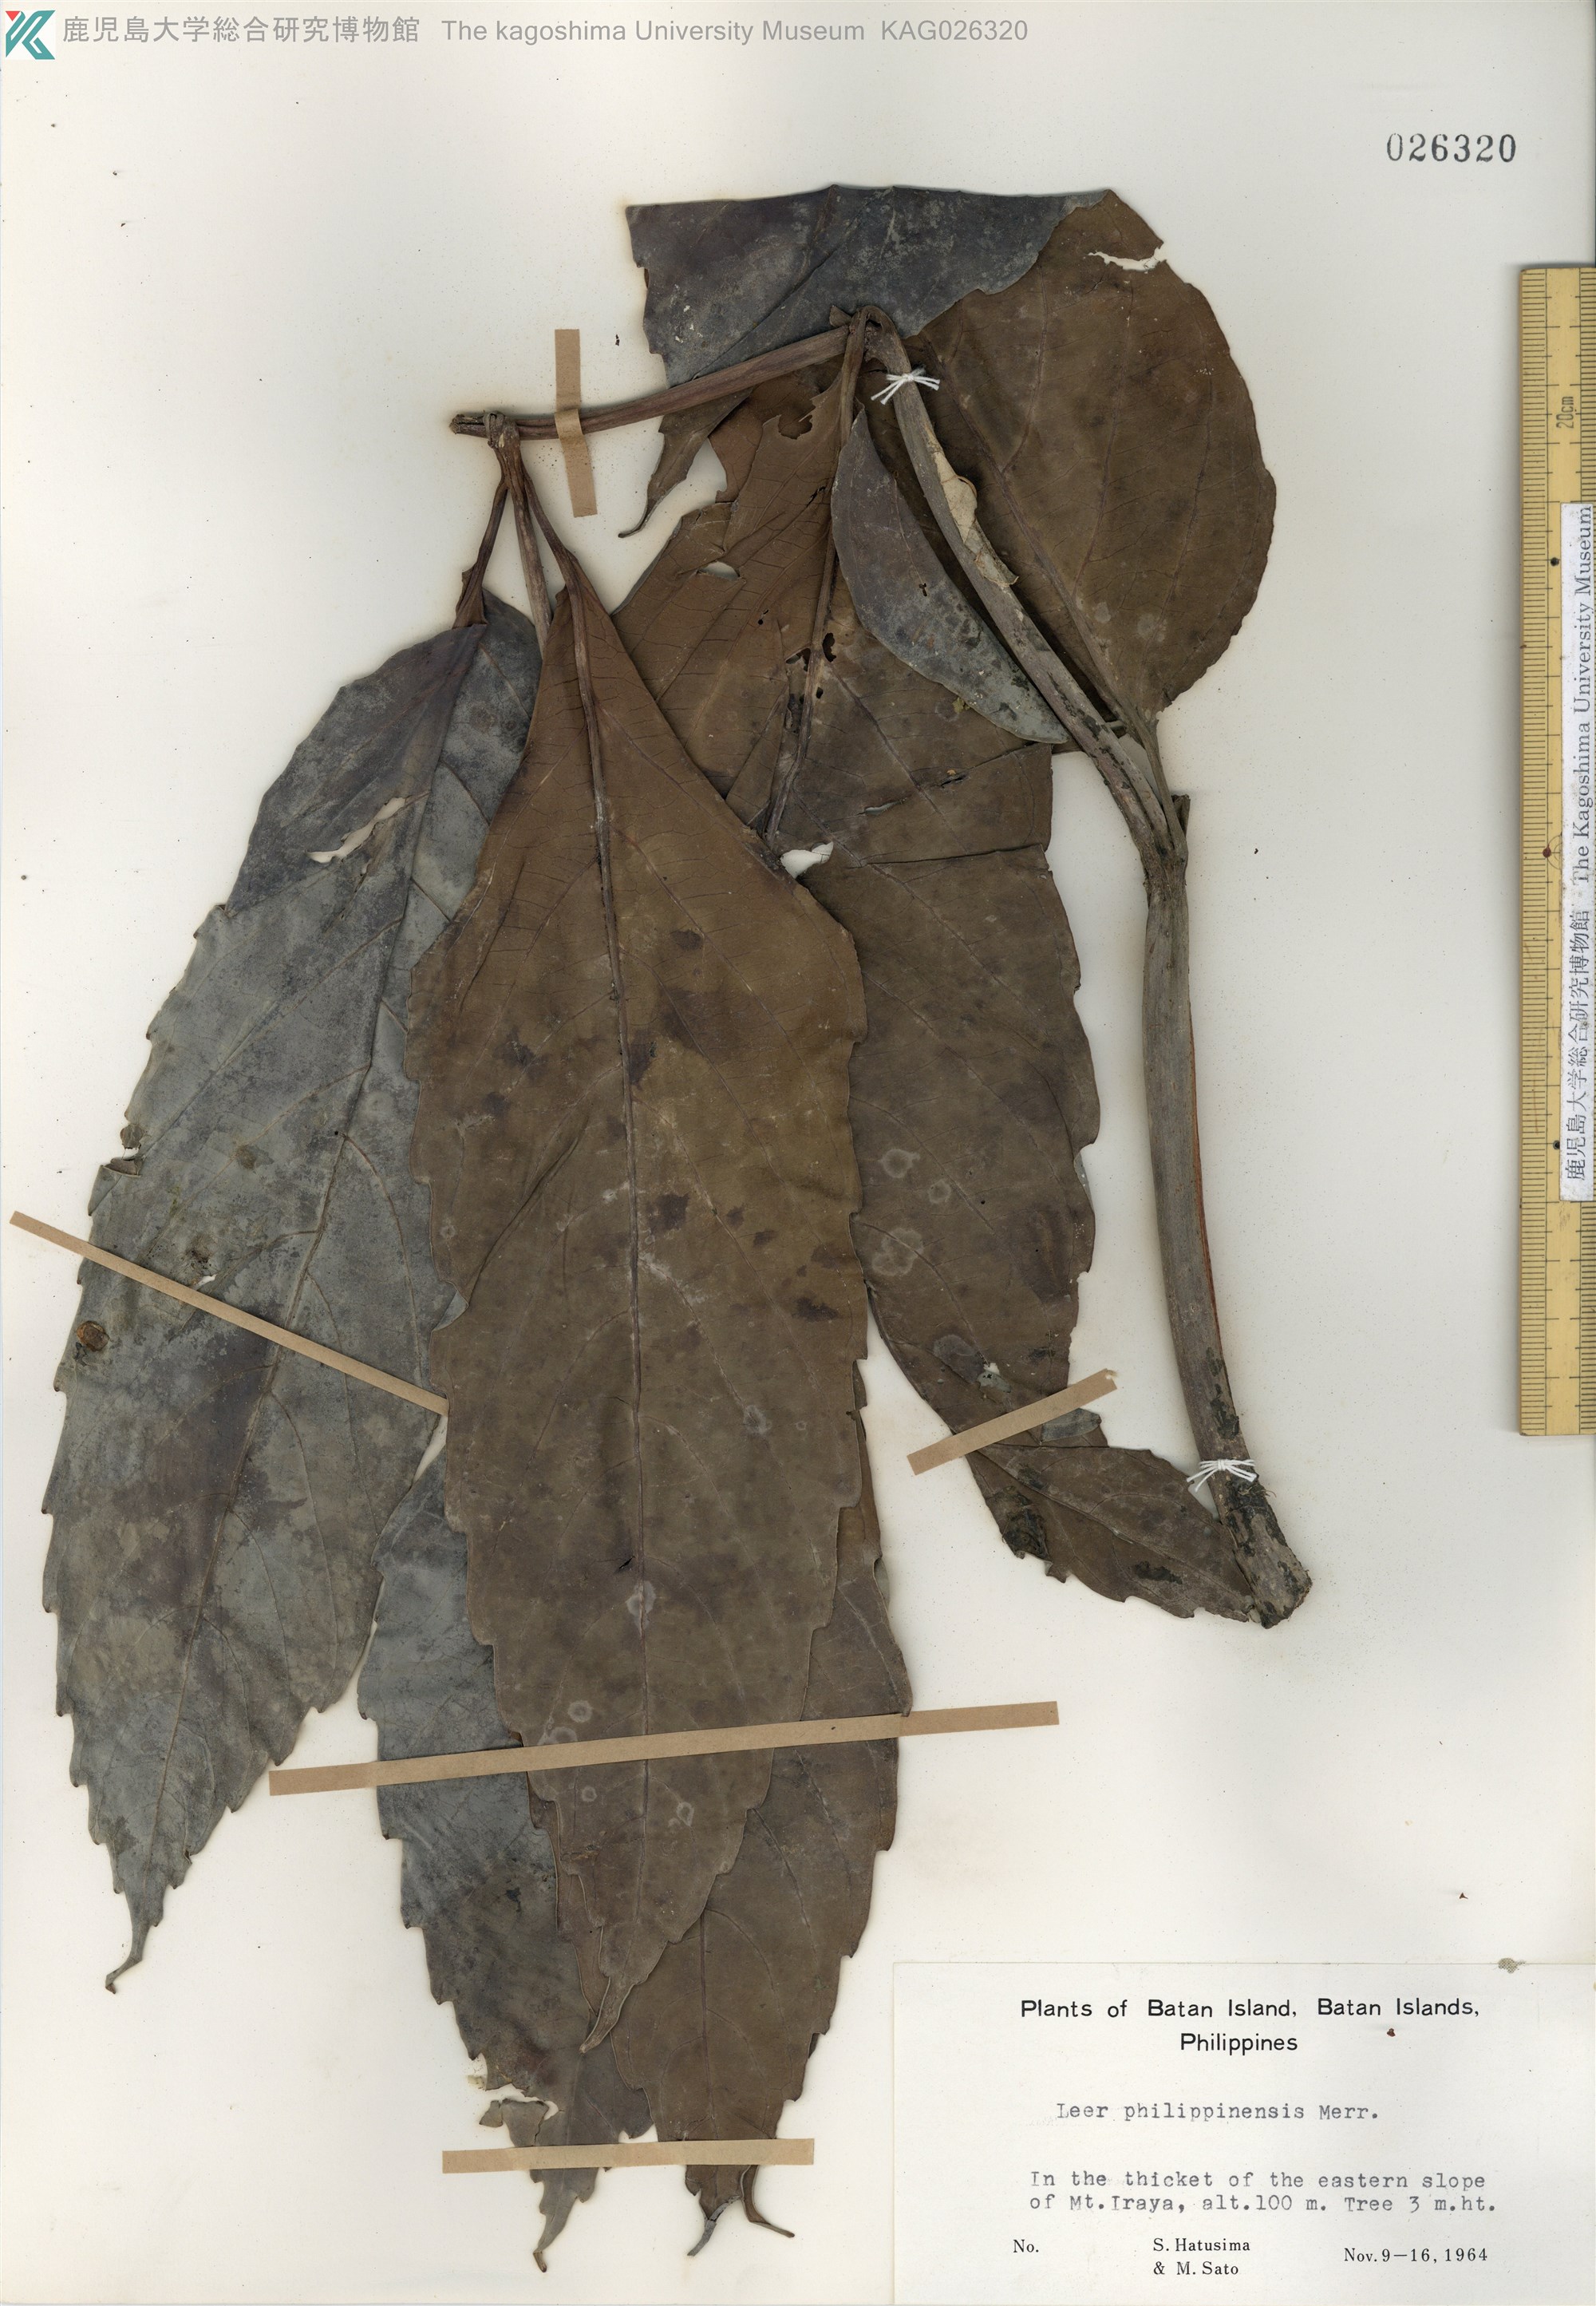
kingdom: Plantae
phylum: Tracheophyta
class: Magnoliopsida
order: Vitales
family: Vitaceae
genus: Leea
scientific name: Leea philippinensis
